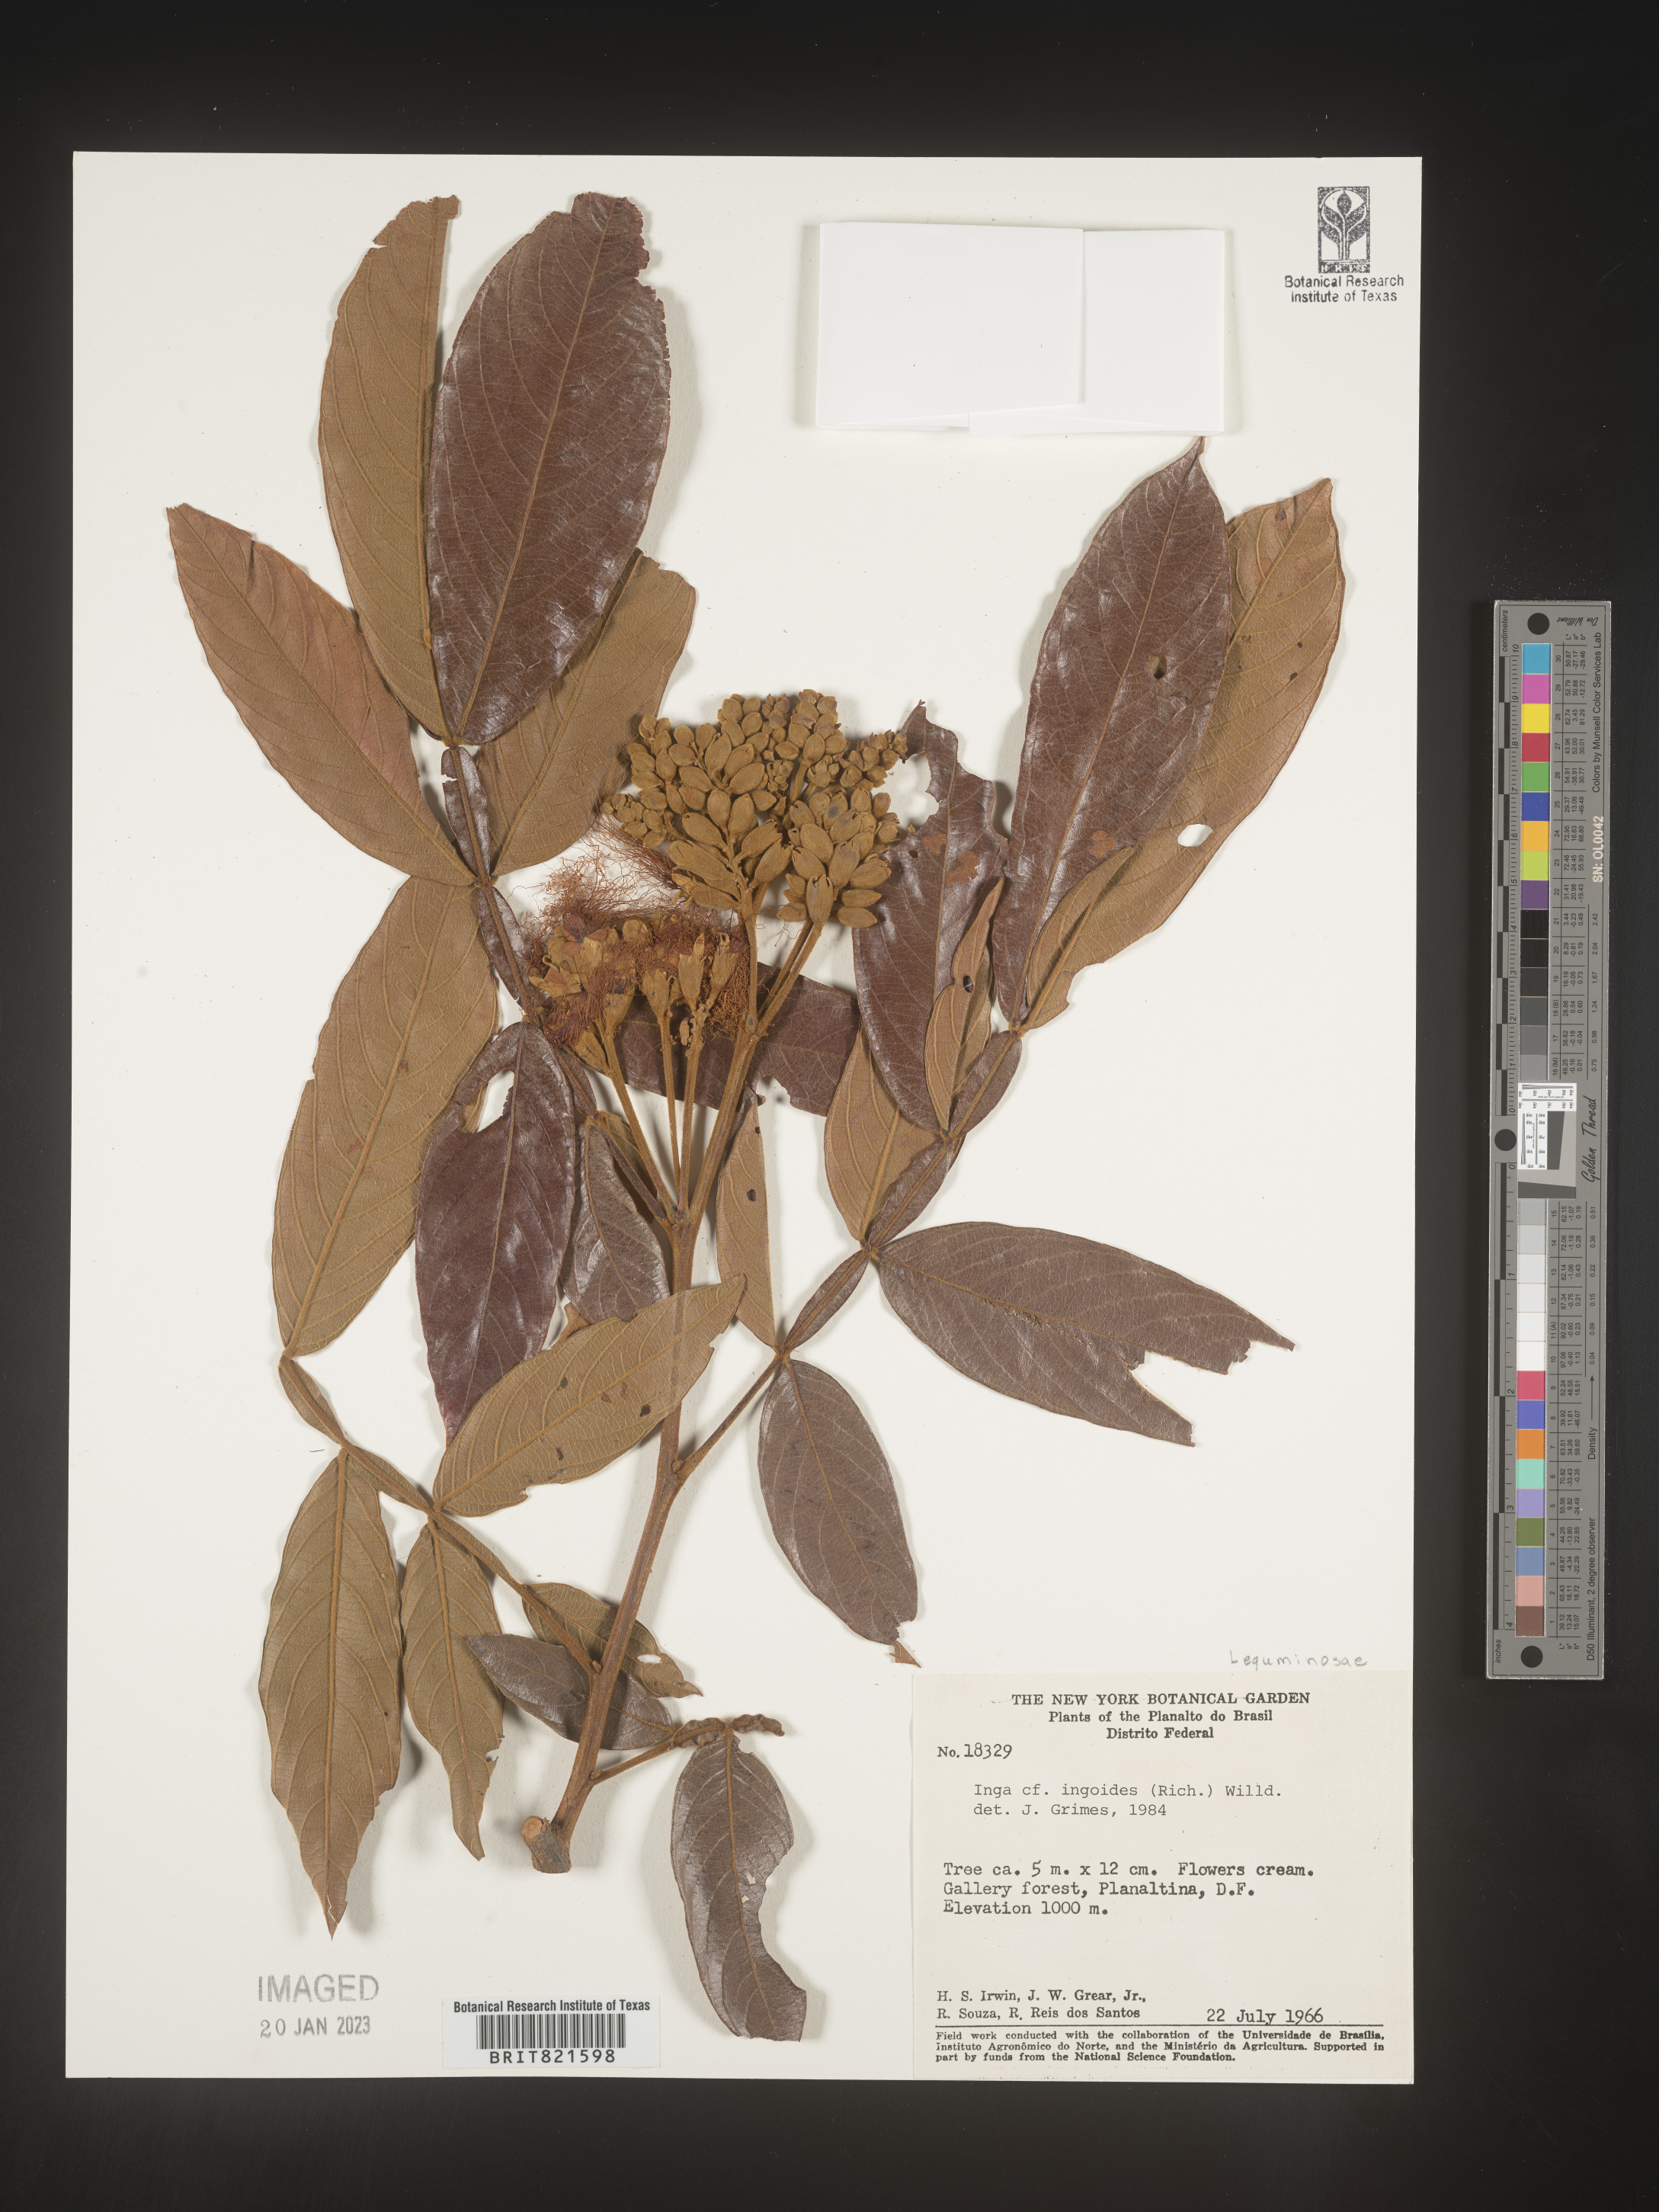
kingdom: Plantae
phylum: Tracheophyta
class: Magnoliopsida
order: Fabales
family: Fabaceae
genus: Inga
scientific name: Inga
